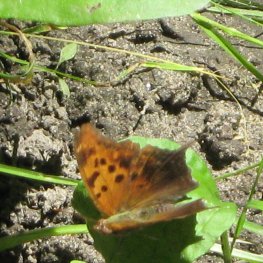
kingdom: Animalia
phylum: Arthropoda
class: Insecta
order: Lepidoptera
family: Nymphalidae
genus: Polygonia
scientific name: Polygonia interrogationis
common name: Question Mark
